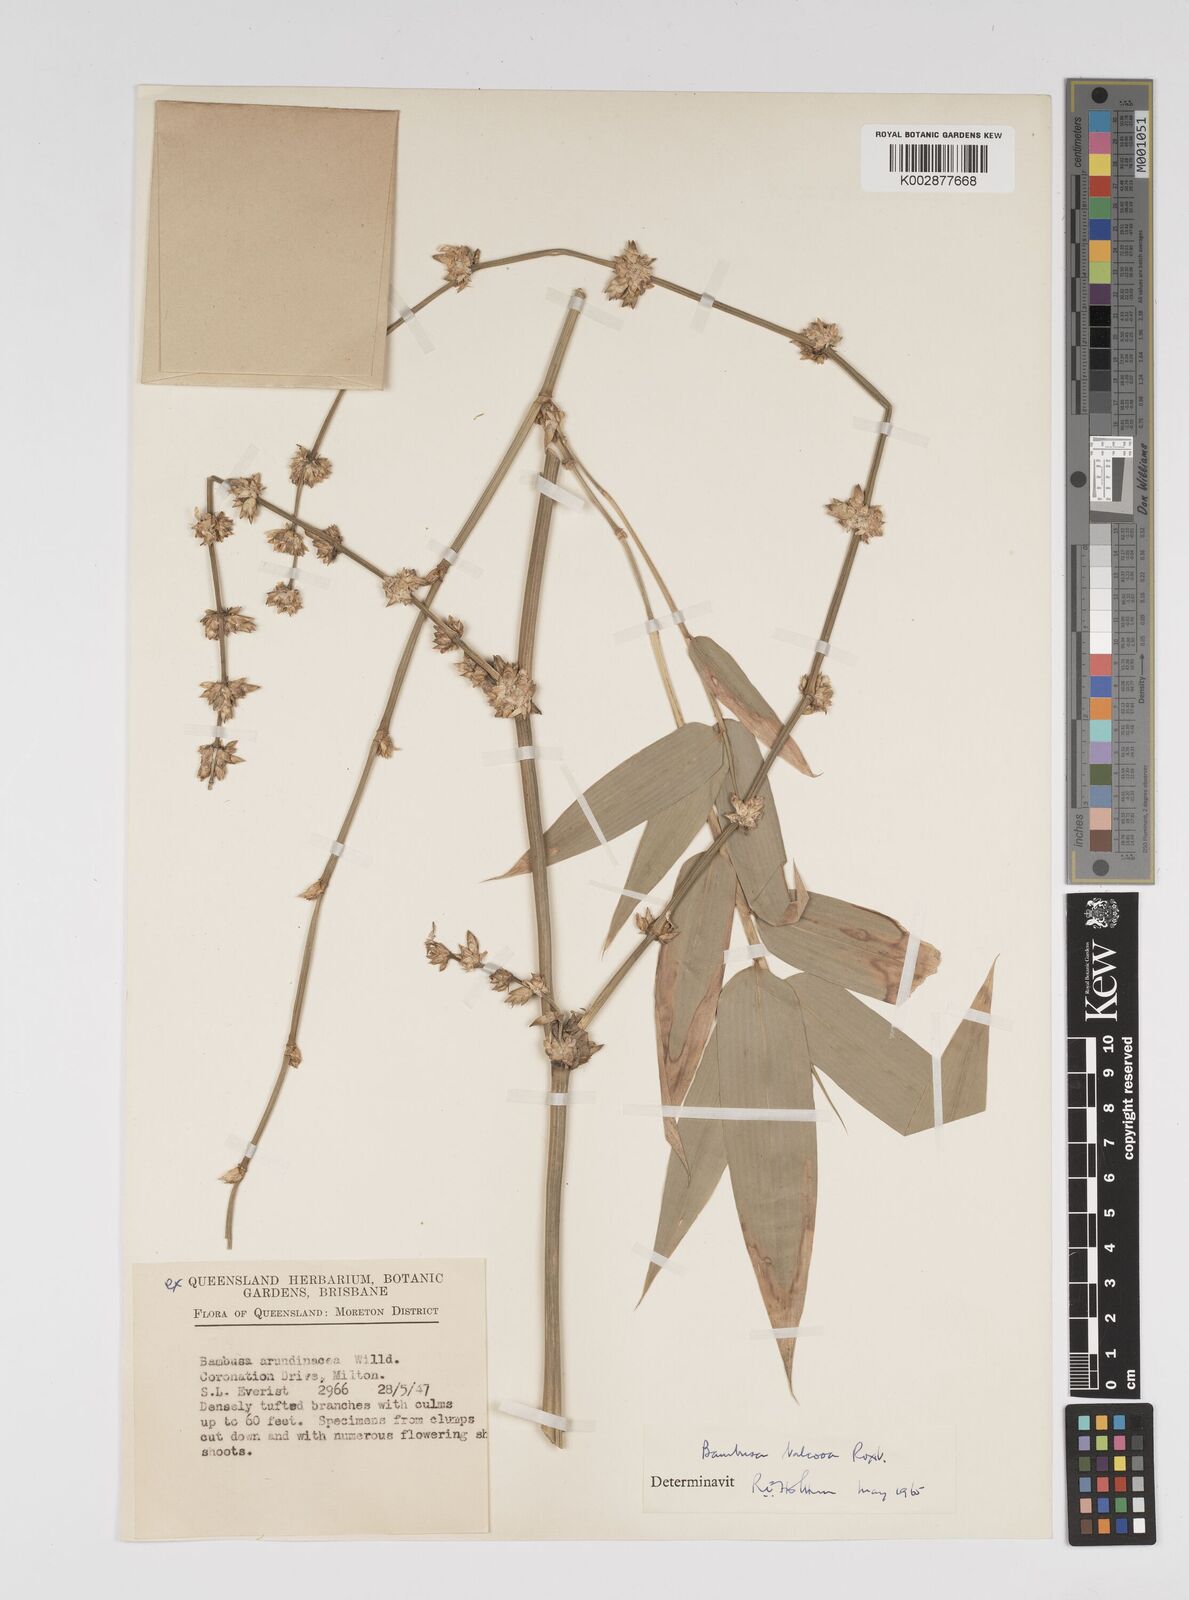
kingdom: Plantae
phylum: Tracheophyta
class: Liliopsida
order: Poales
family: Poaceae
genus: Bambusa
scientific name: Bambusa balcooa
